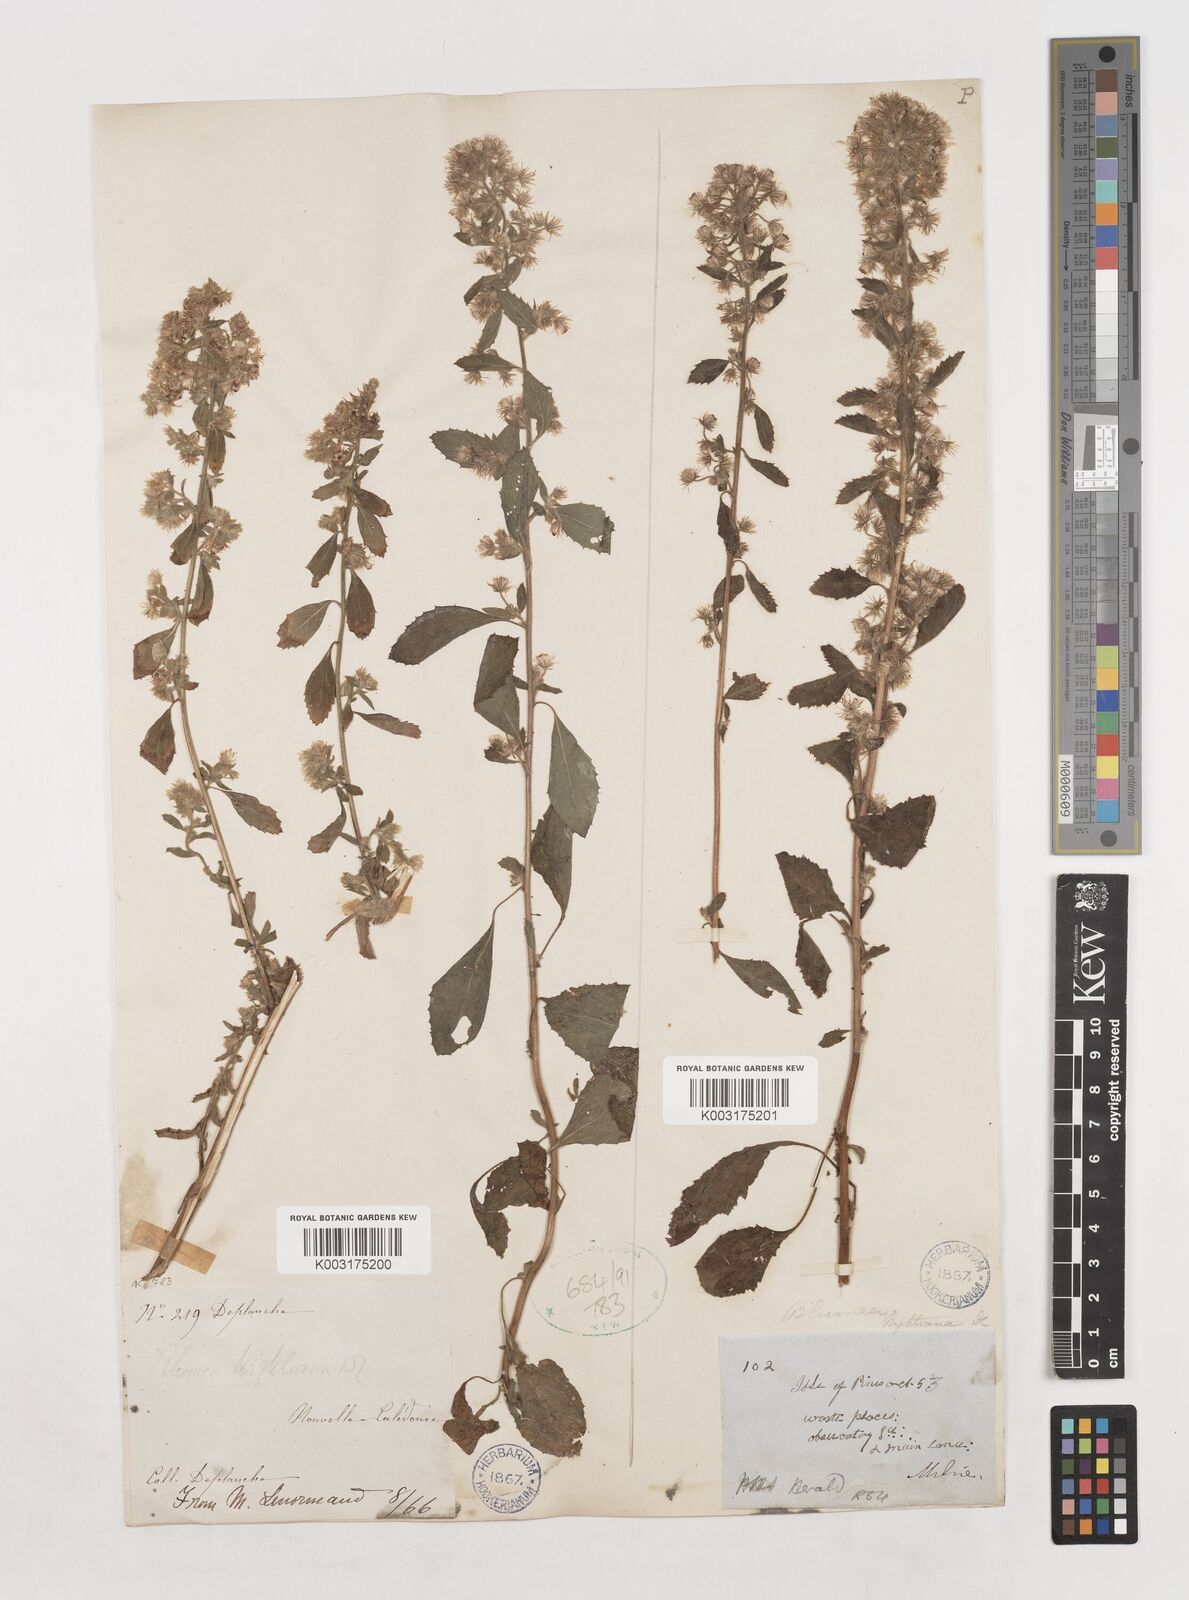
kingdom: Plantae
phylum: Tracheophyta
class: Magnoliopsida
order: Asterales
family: Asteraceae
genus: Blumea
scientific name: Blumea lacera
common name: Malay blumea
